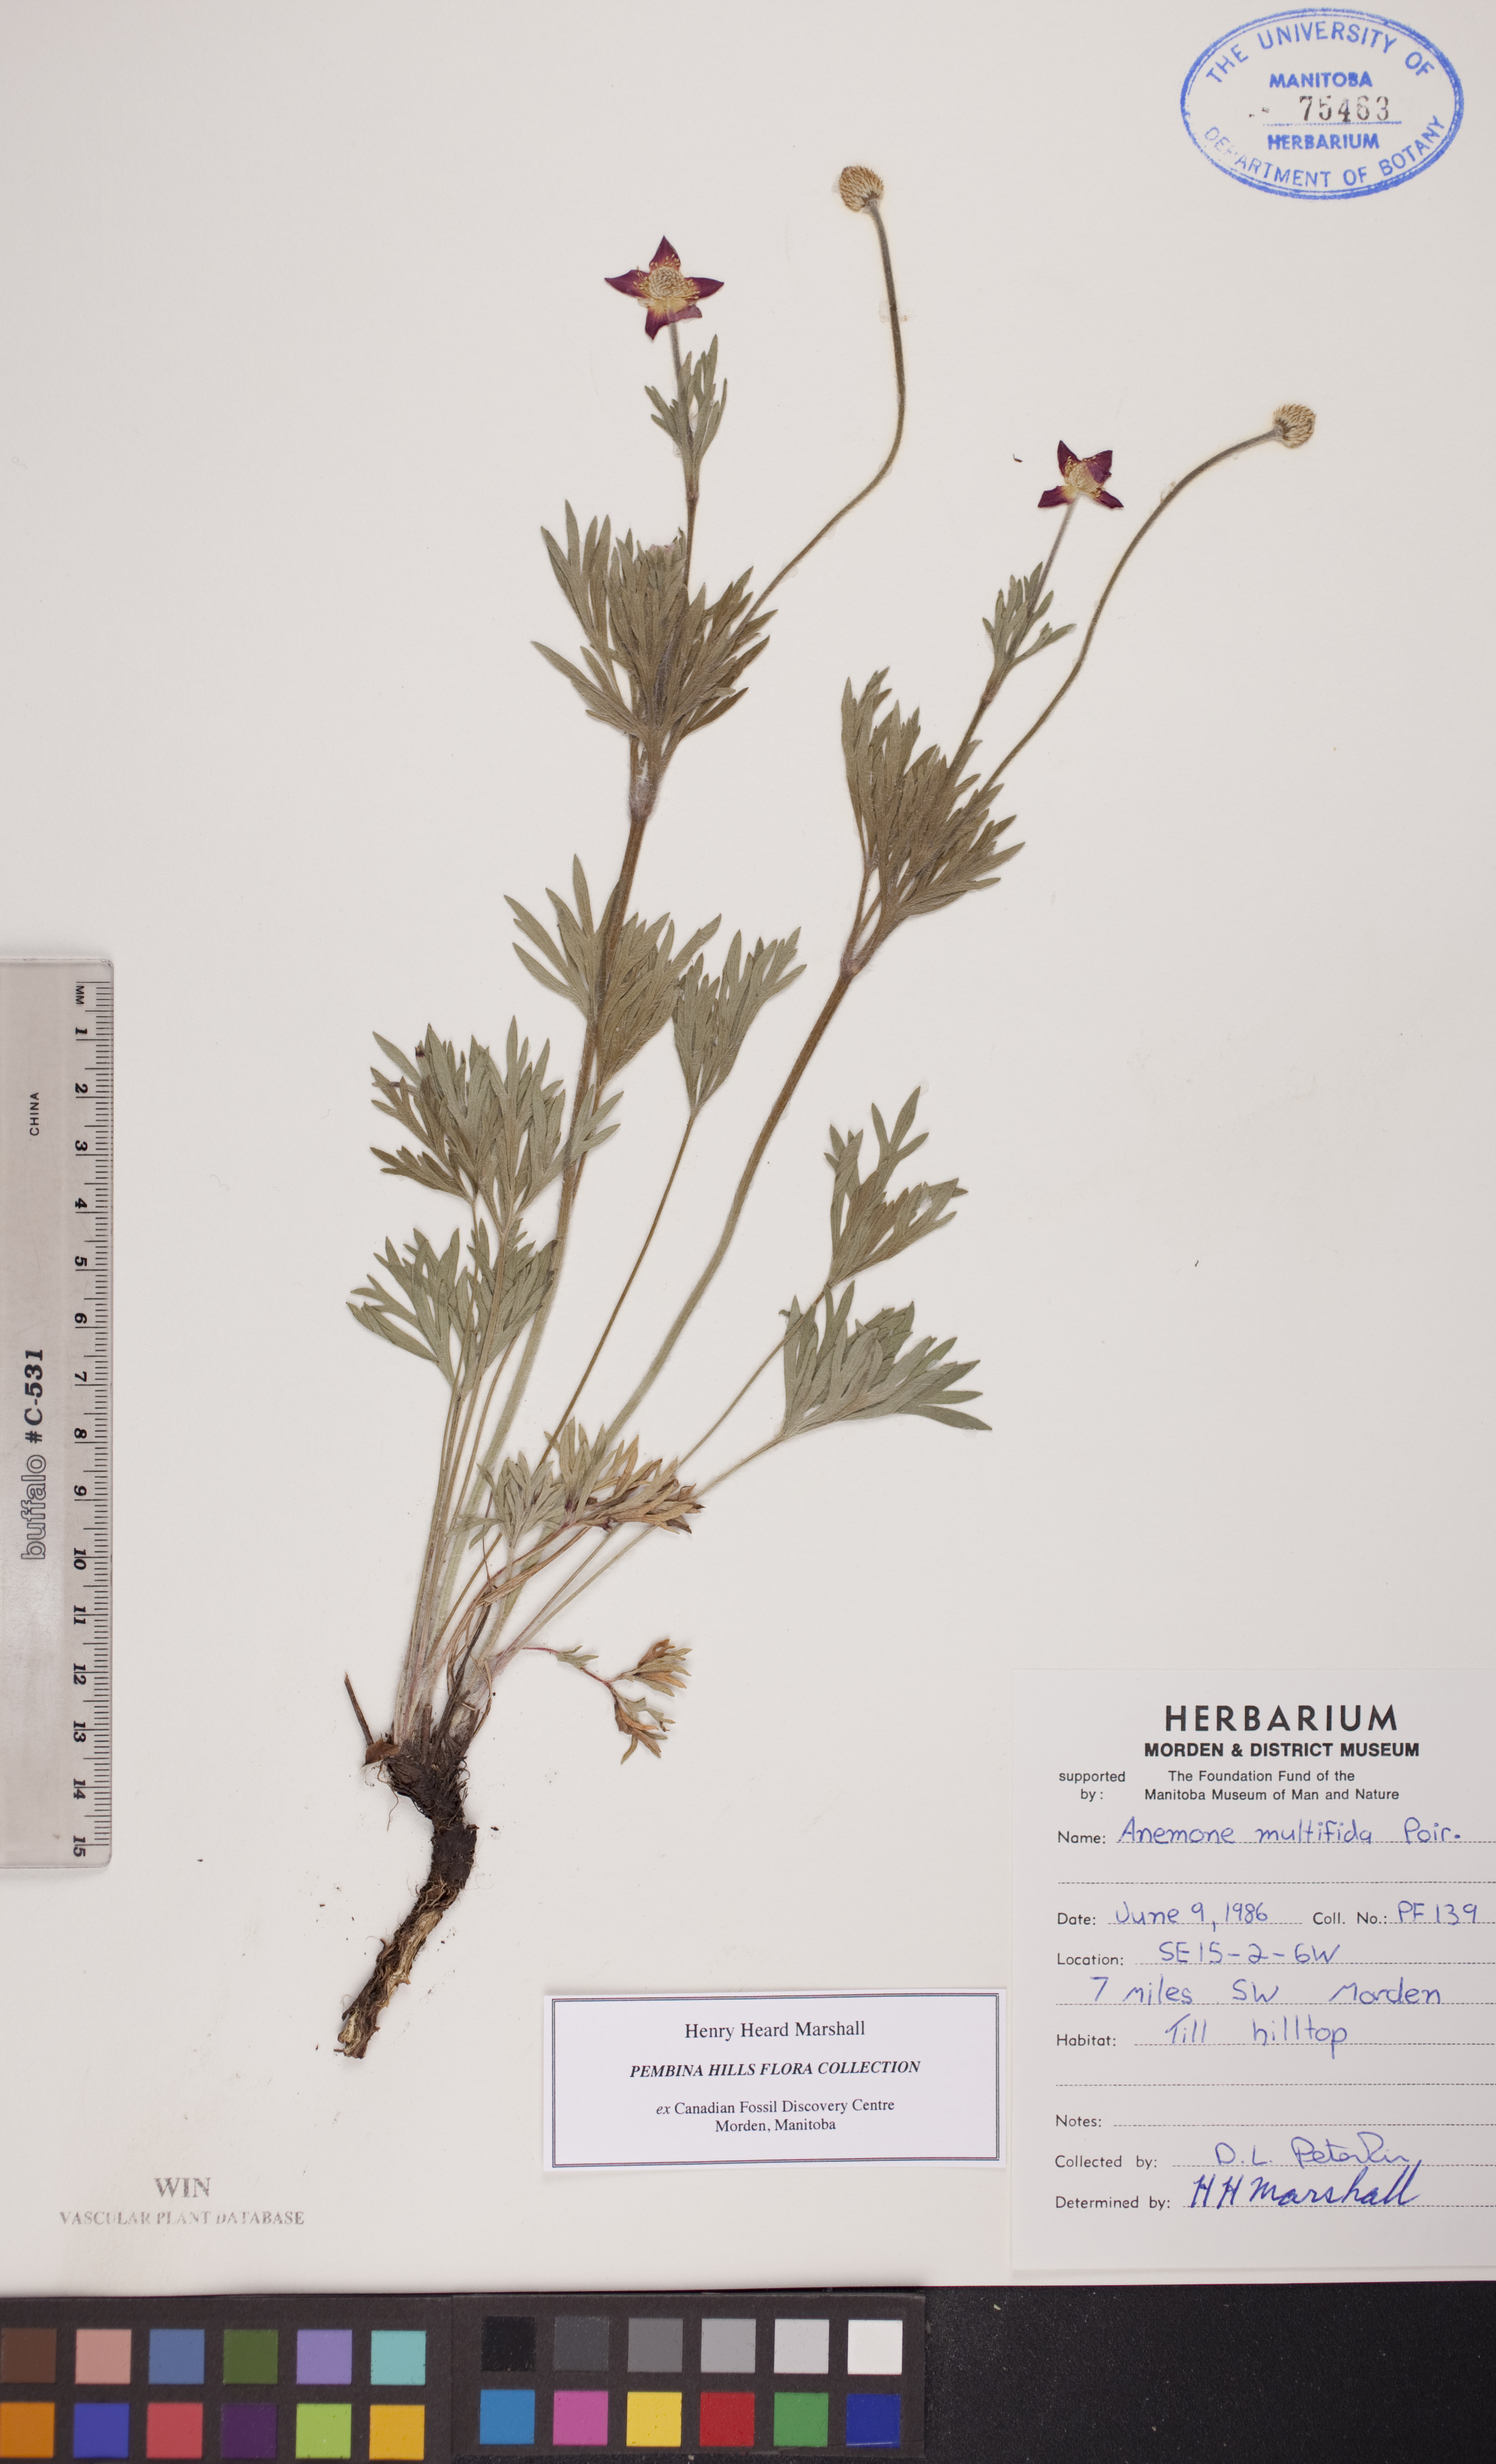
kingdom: Plantae
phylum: Tracheophyta
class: Magnoliopsida
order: Ranunculales
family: Ranunculaceae
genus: Anemone
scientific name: Anemone multifida
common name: Bird's-foot anemone
